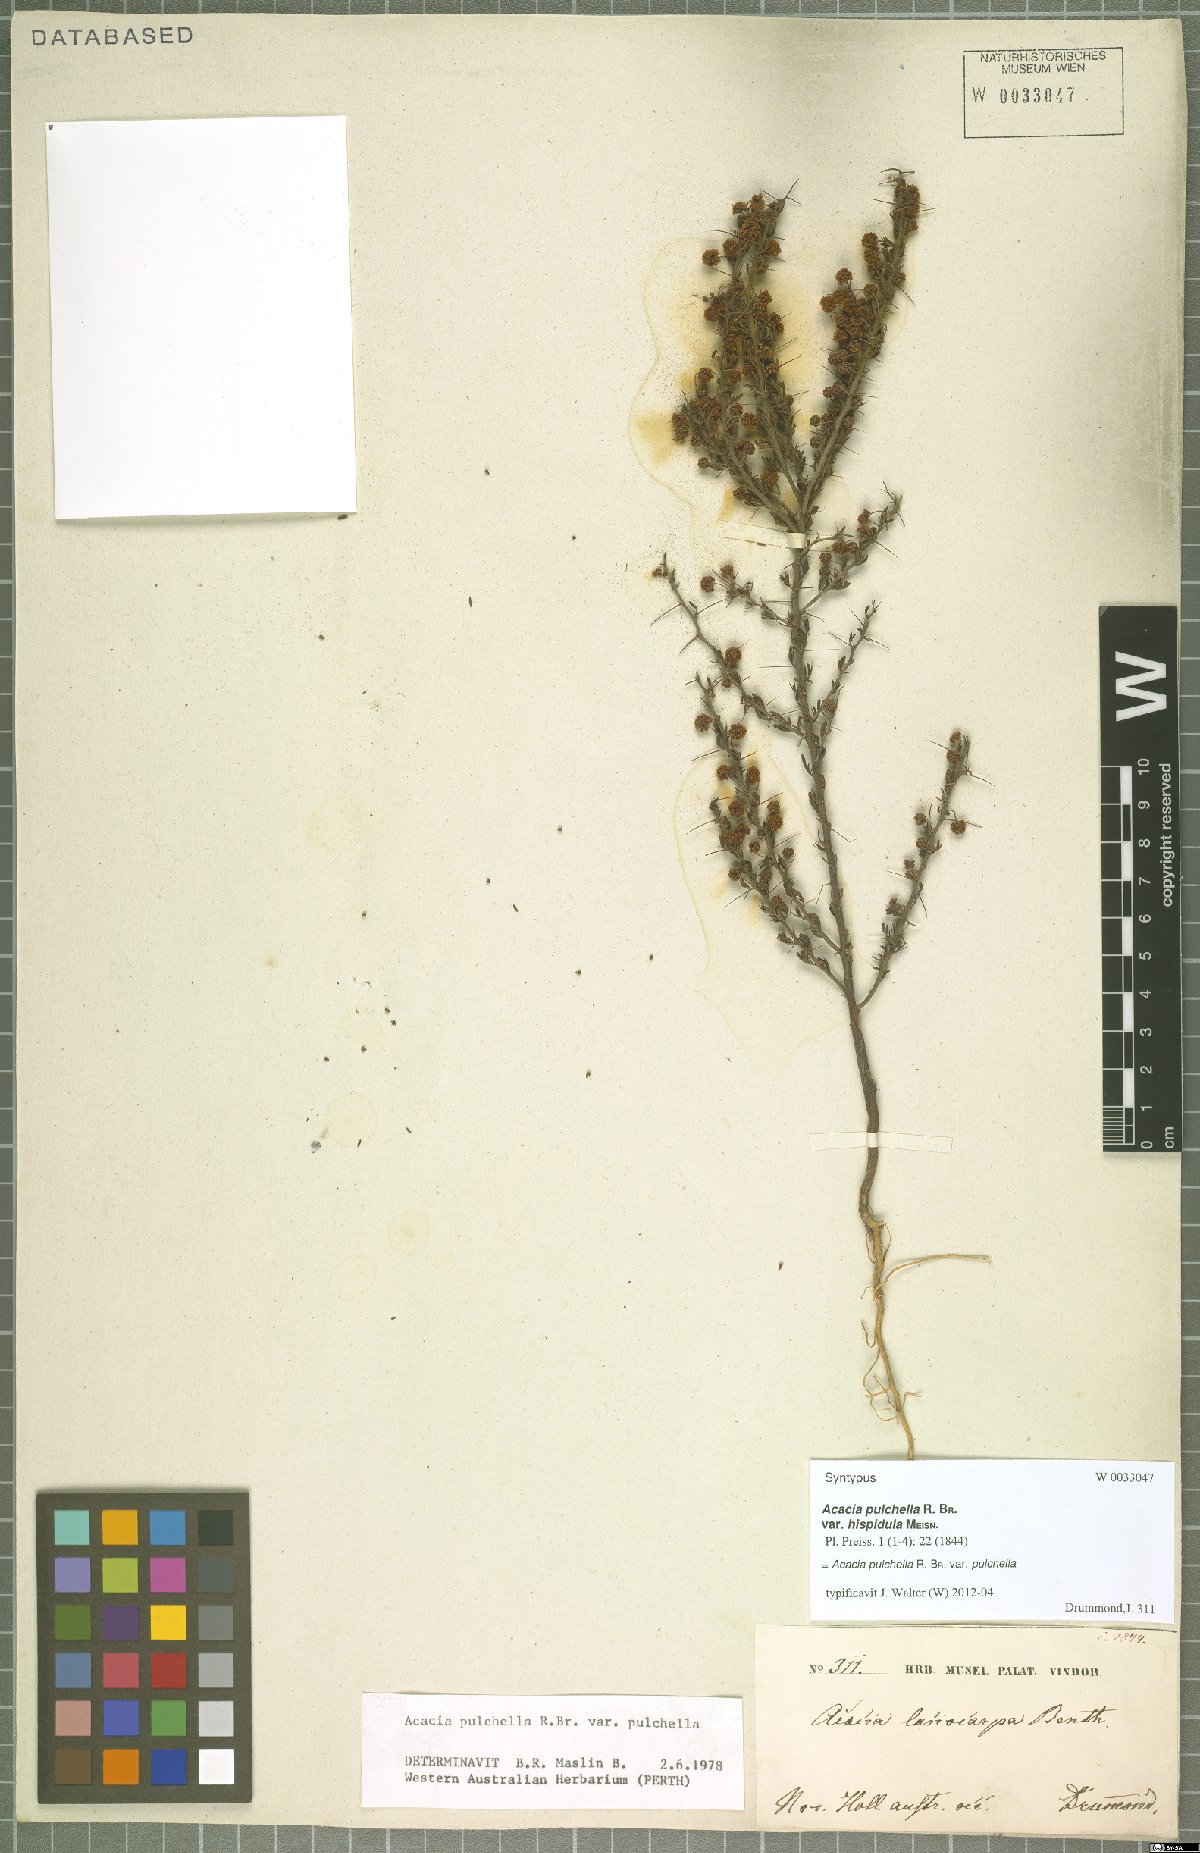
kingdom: Plantae
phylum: Tracheophyta
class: Magnoliopsida
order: Fabales
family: Fabaceae
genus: Acacia
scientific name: Acacia pulchella
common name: Prickly moses
